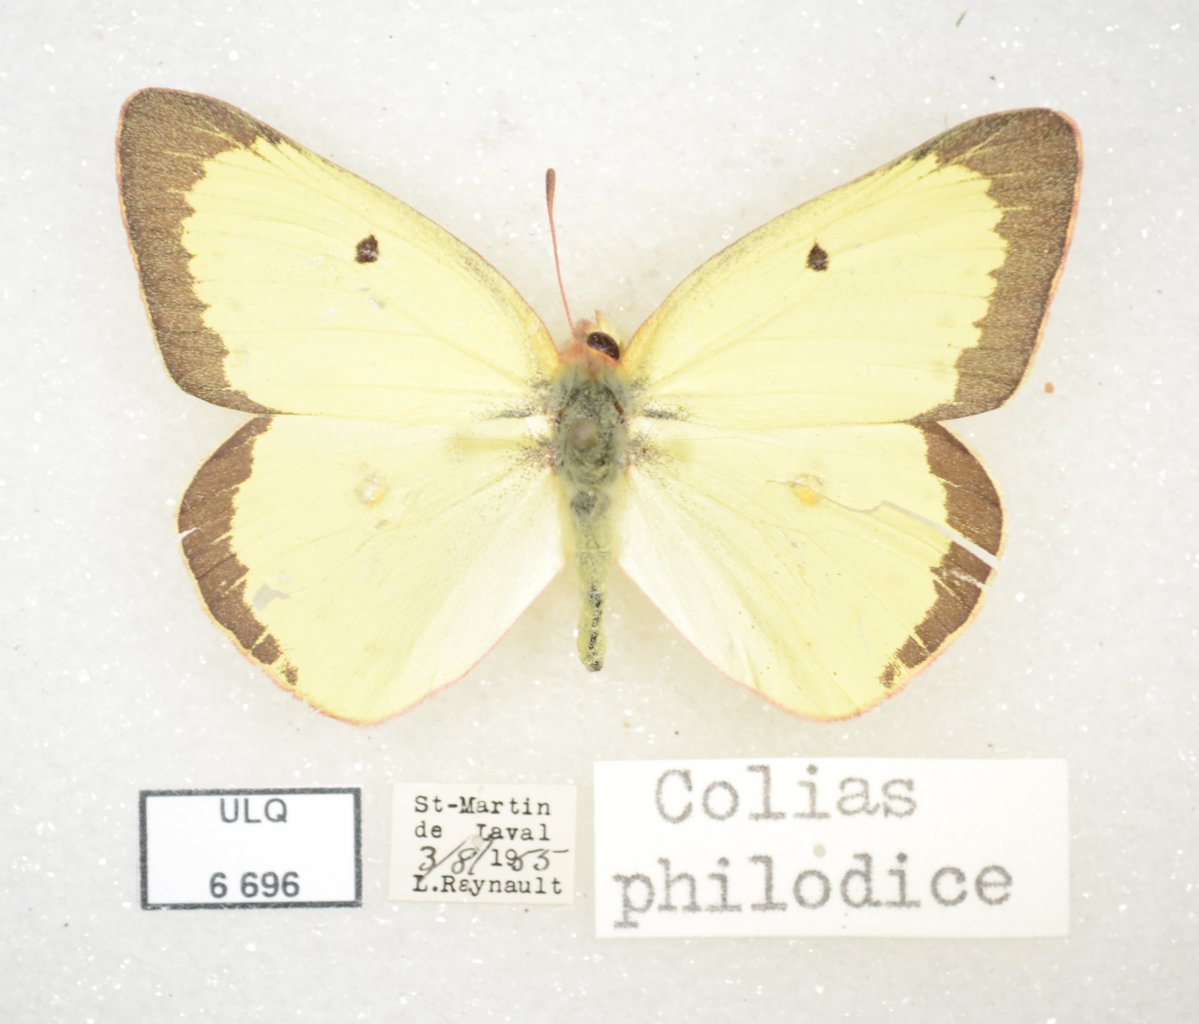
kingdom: Animalia
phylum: Arthropoda
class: Insecta
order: Lepidoptera
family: Pieridae
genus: Colias
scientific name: Colias philodice
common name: Clouded Sulphur
